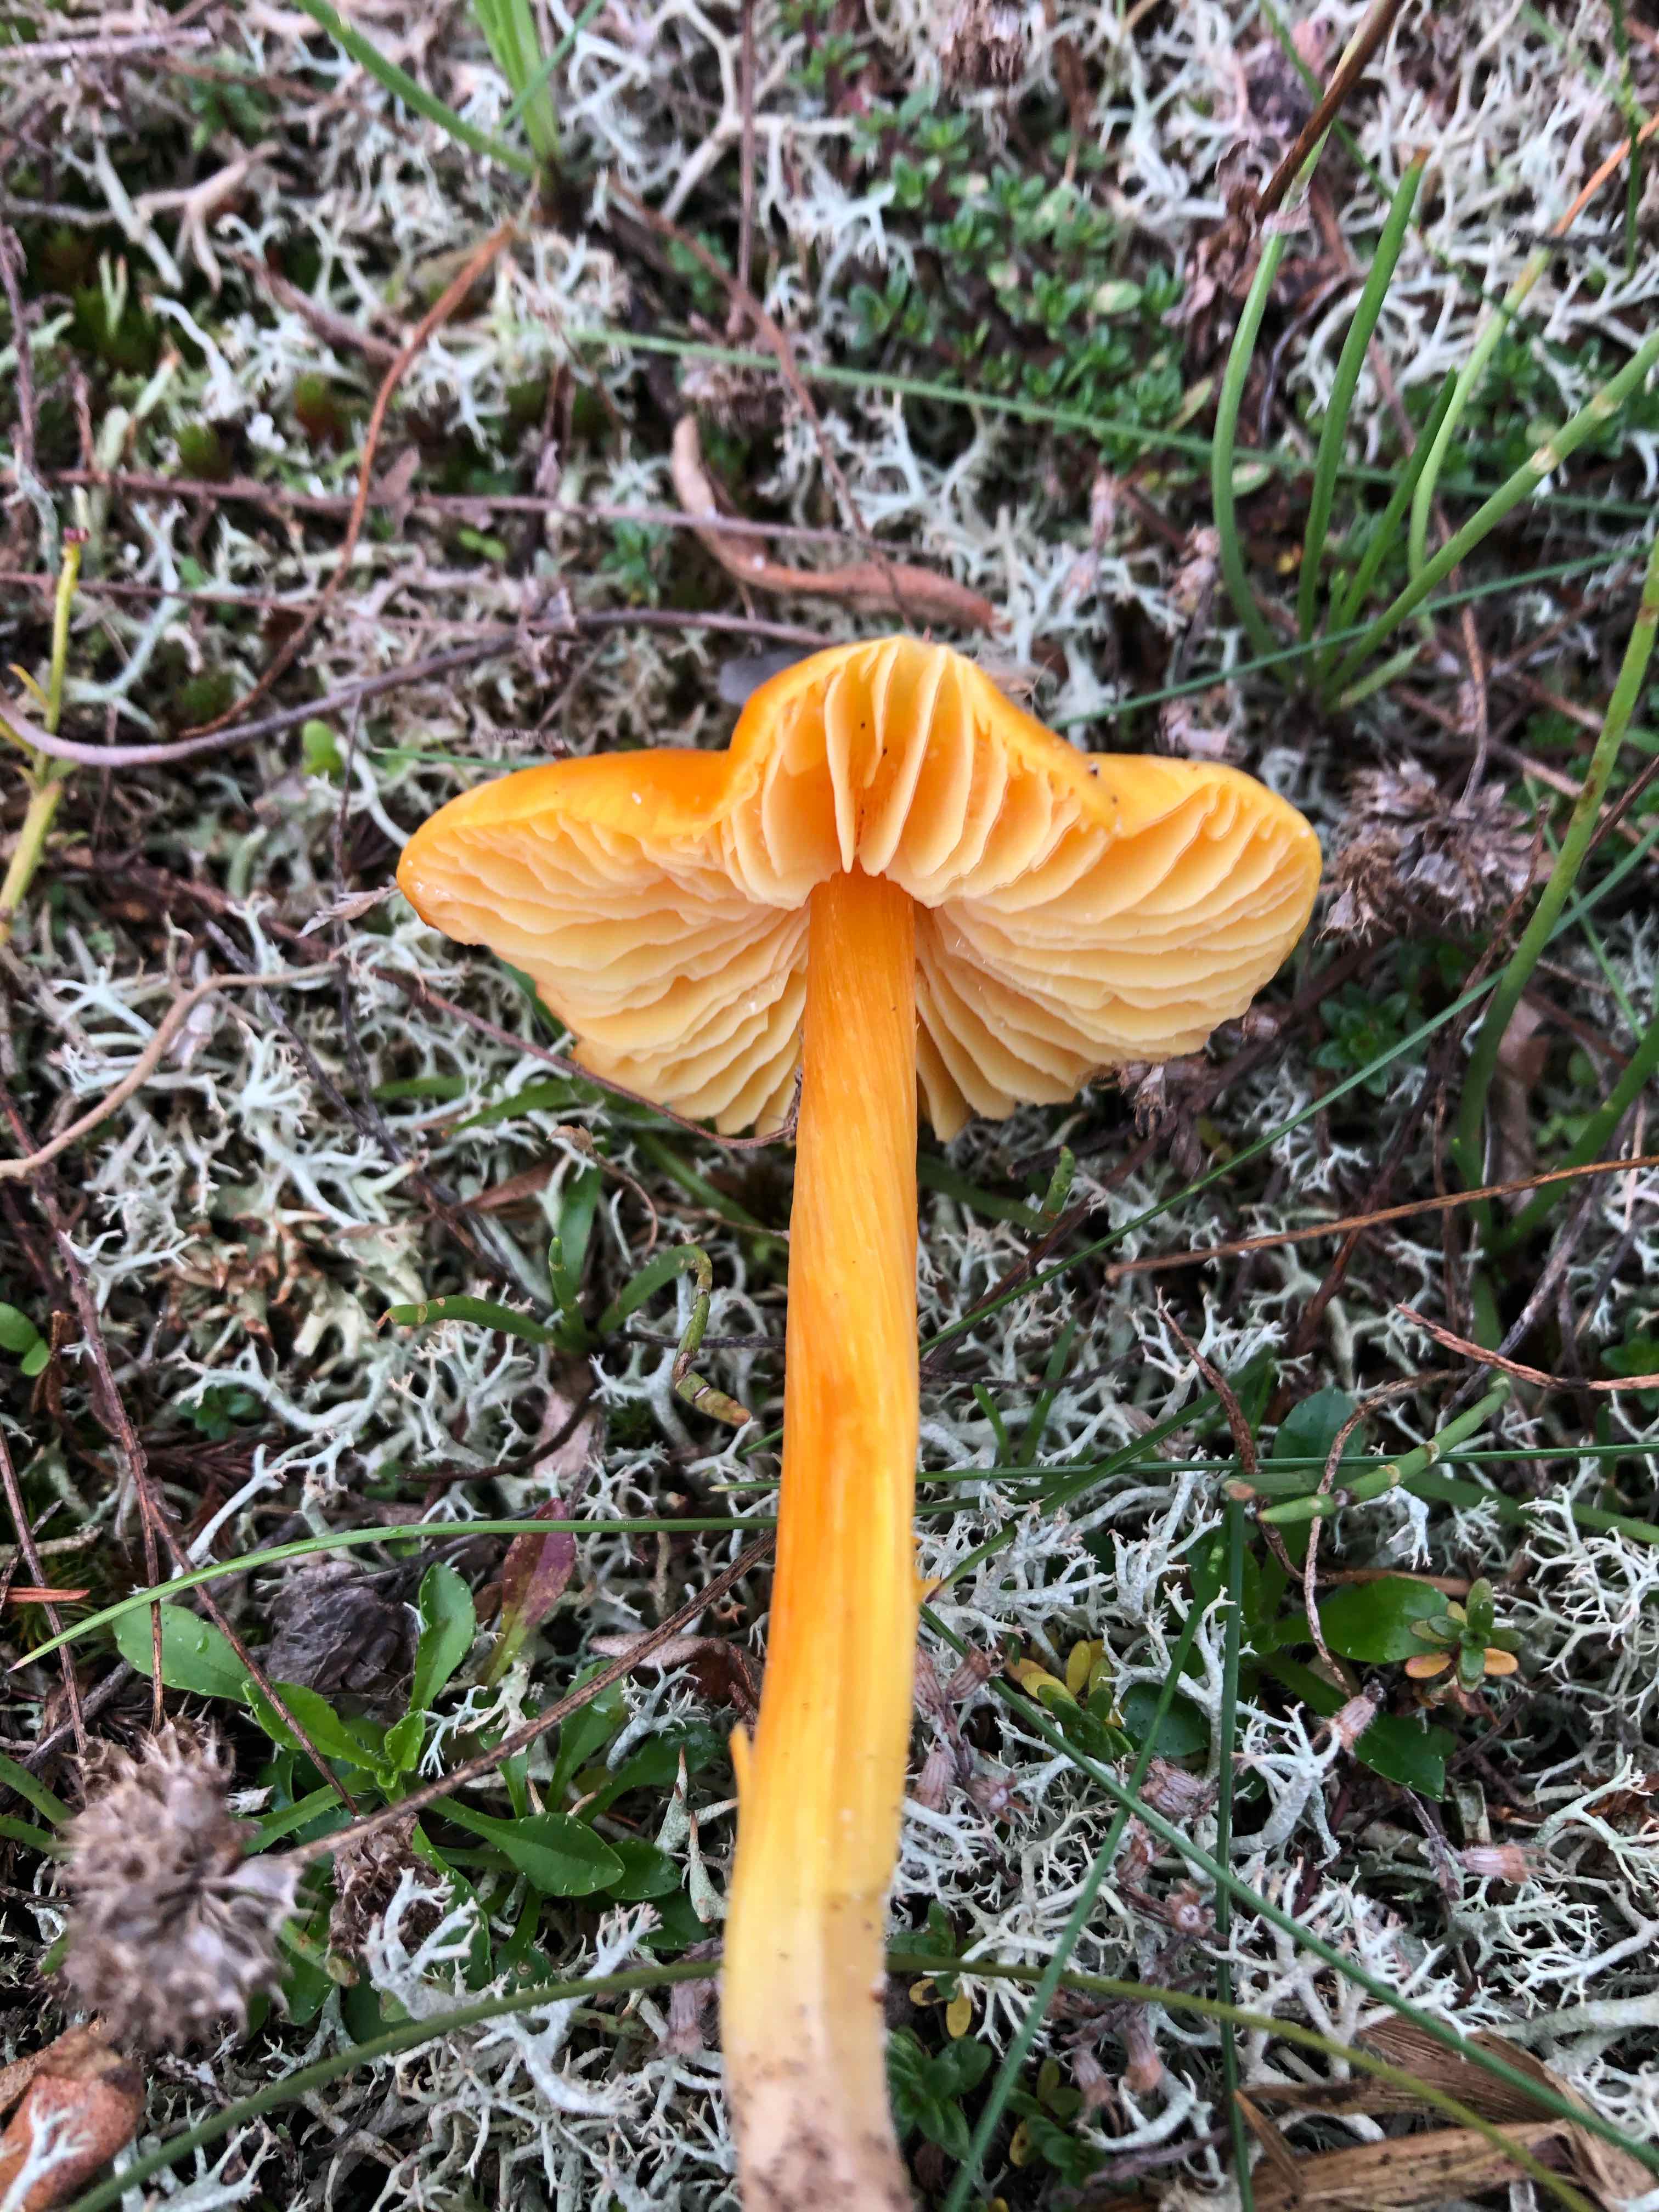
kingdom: Fungi
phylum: Basidiomycota
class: Agaricomycetes
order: Agaricales
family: Hygrophoraceae
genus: Hygrocybe
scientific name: Hygrocybe
